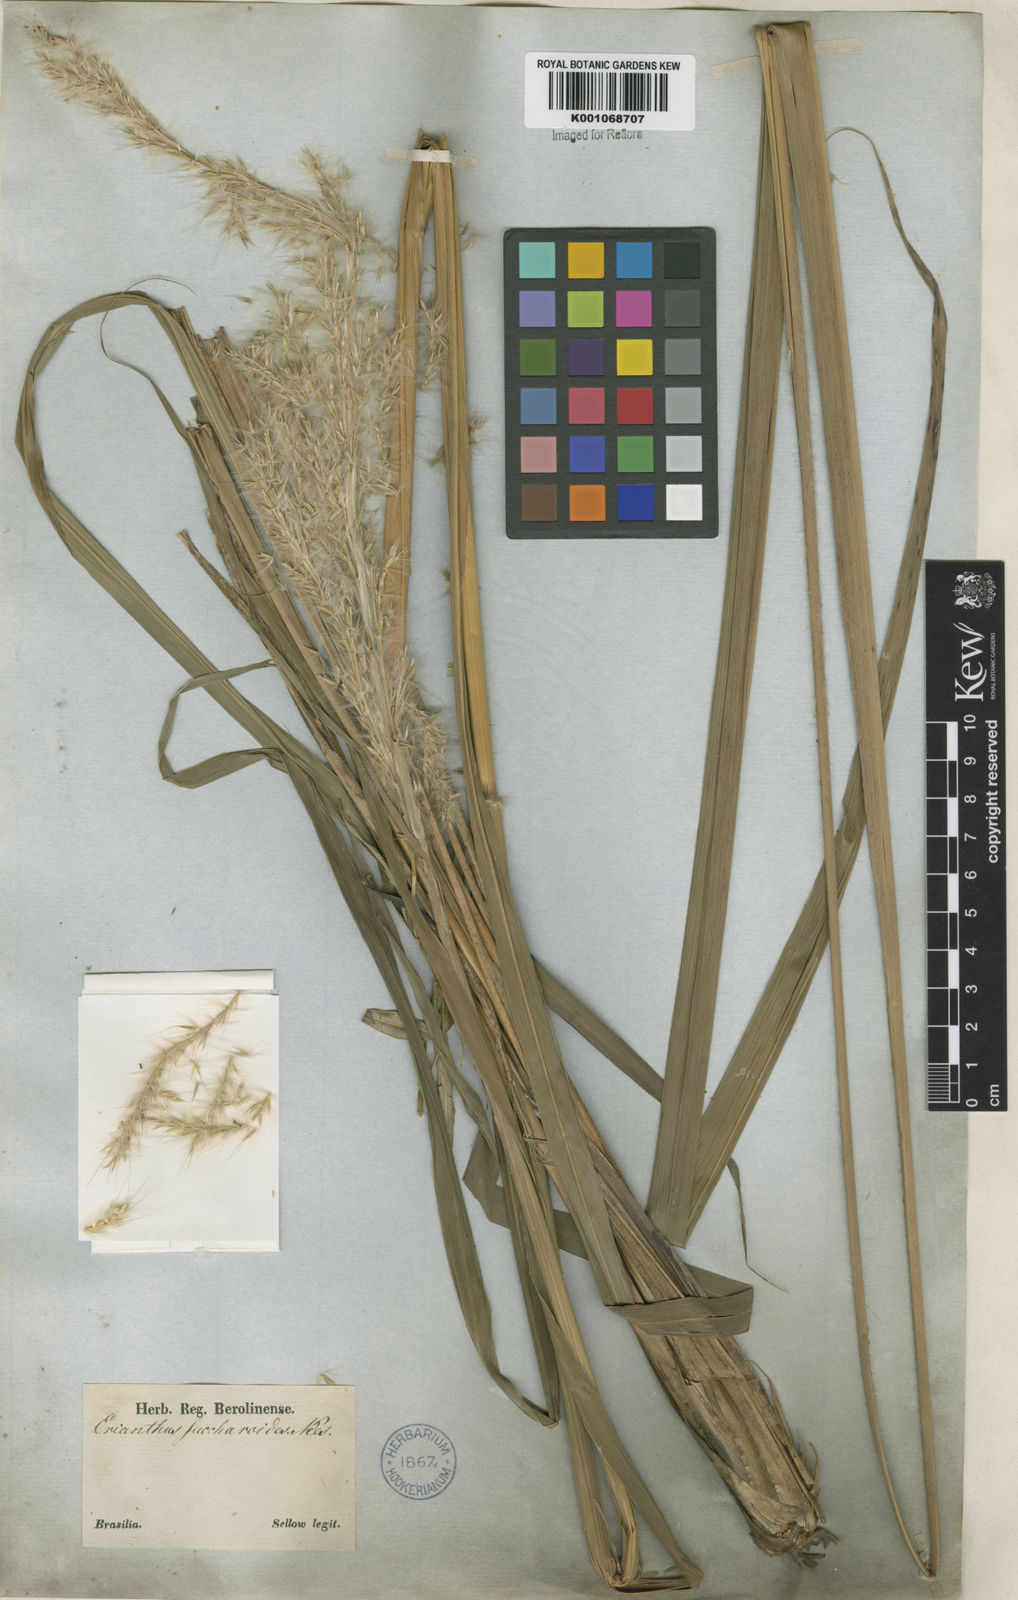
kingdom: Plantae
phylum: Tracheophyta
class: Liliopsida
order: Poales
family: Poaceae
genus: Erianthus
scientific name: Erianthus asper
